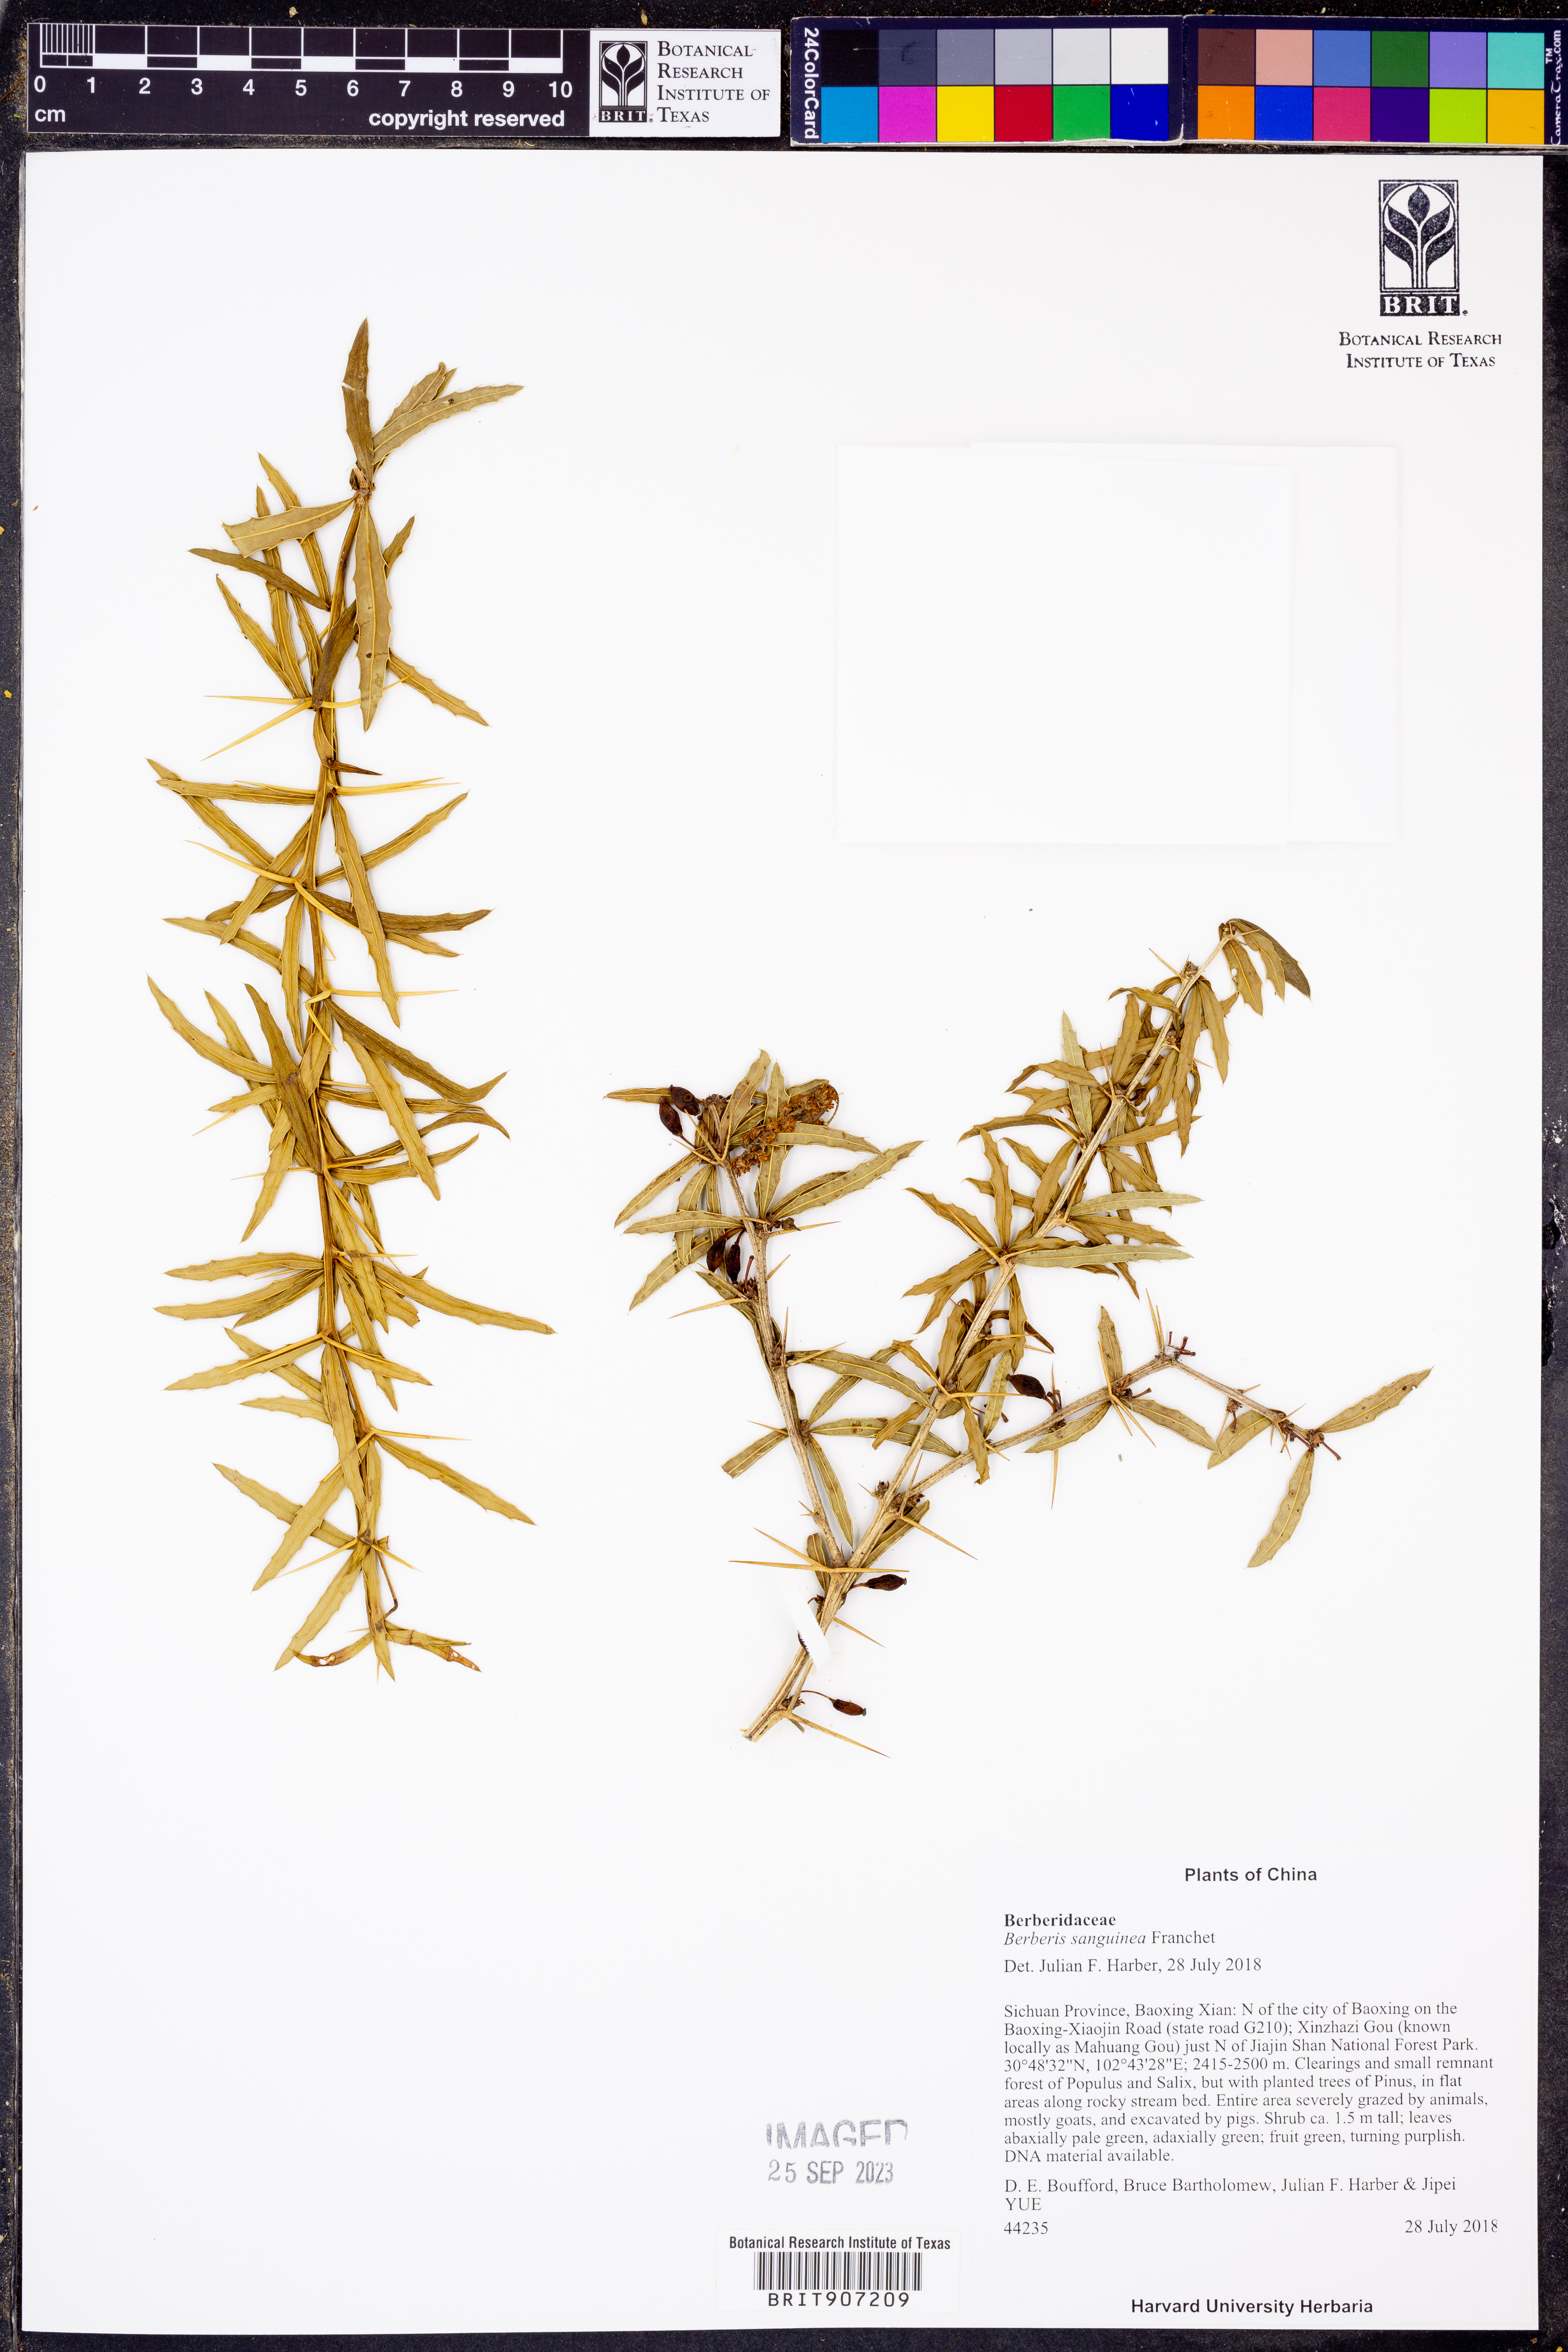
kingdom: Plantae
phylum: Tracheophyta
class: Magnoliopsida
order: Ranunculales
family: Berberidaceae
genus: Berberis
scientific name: Berberis sanguinea
